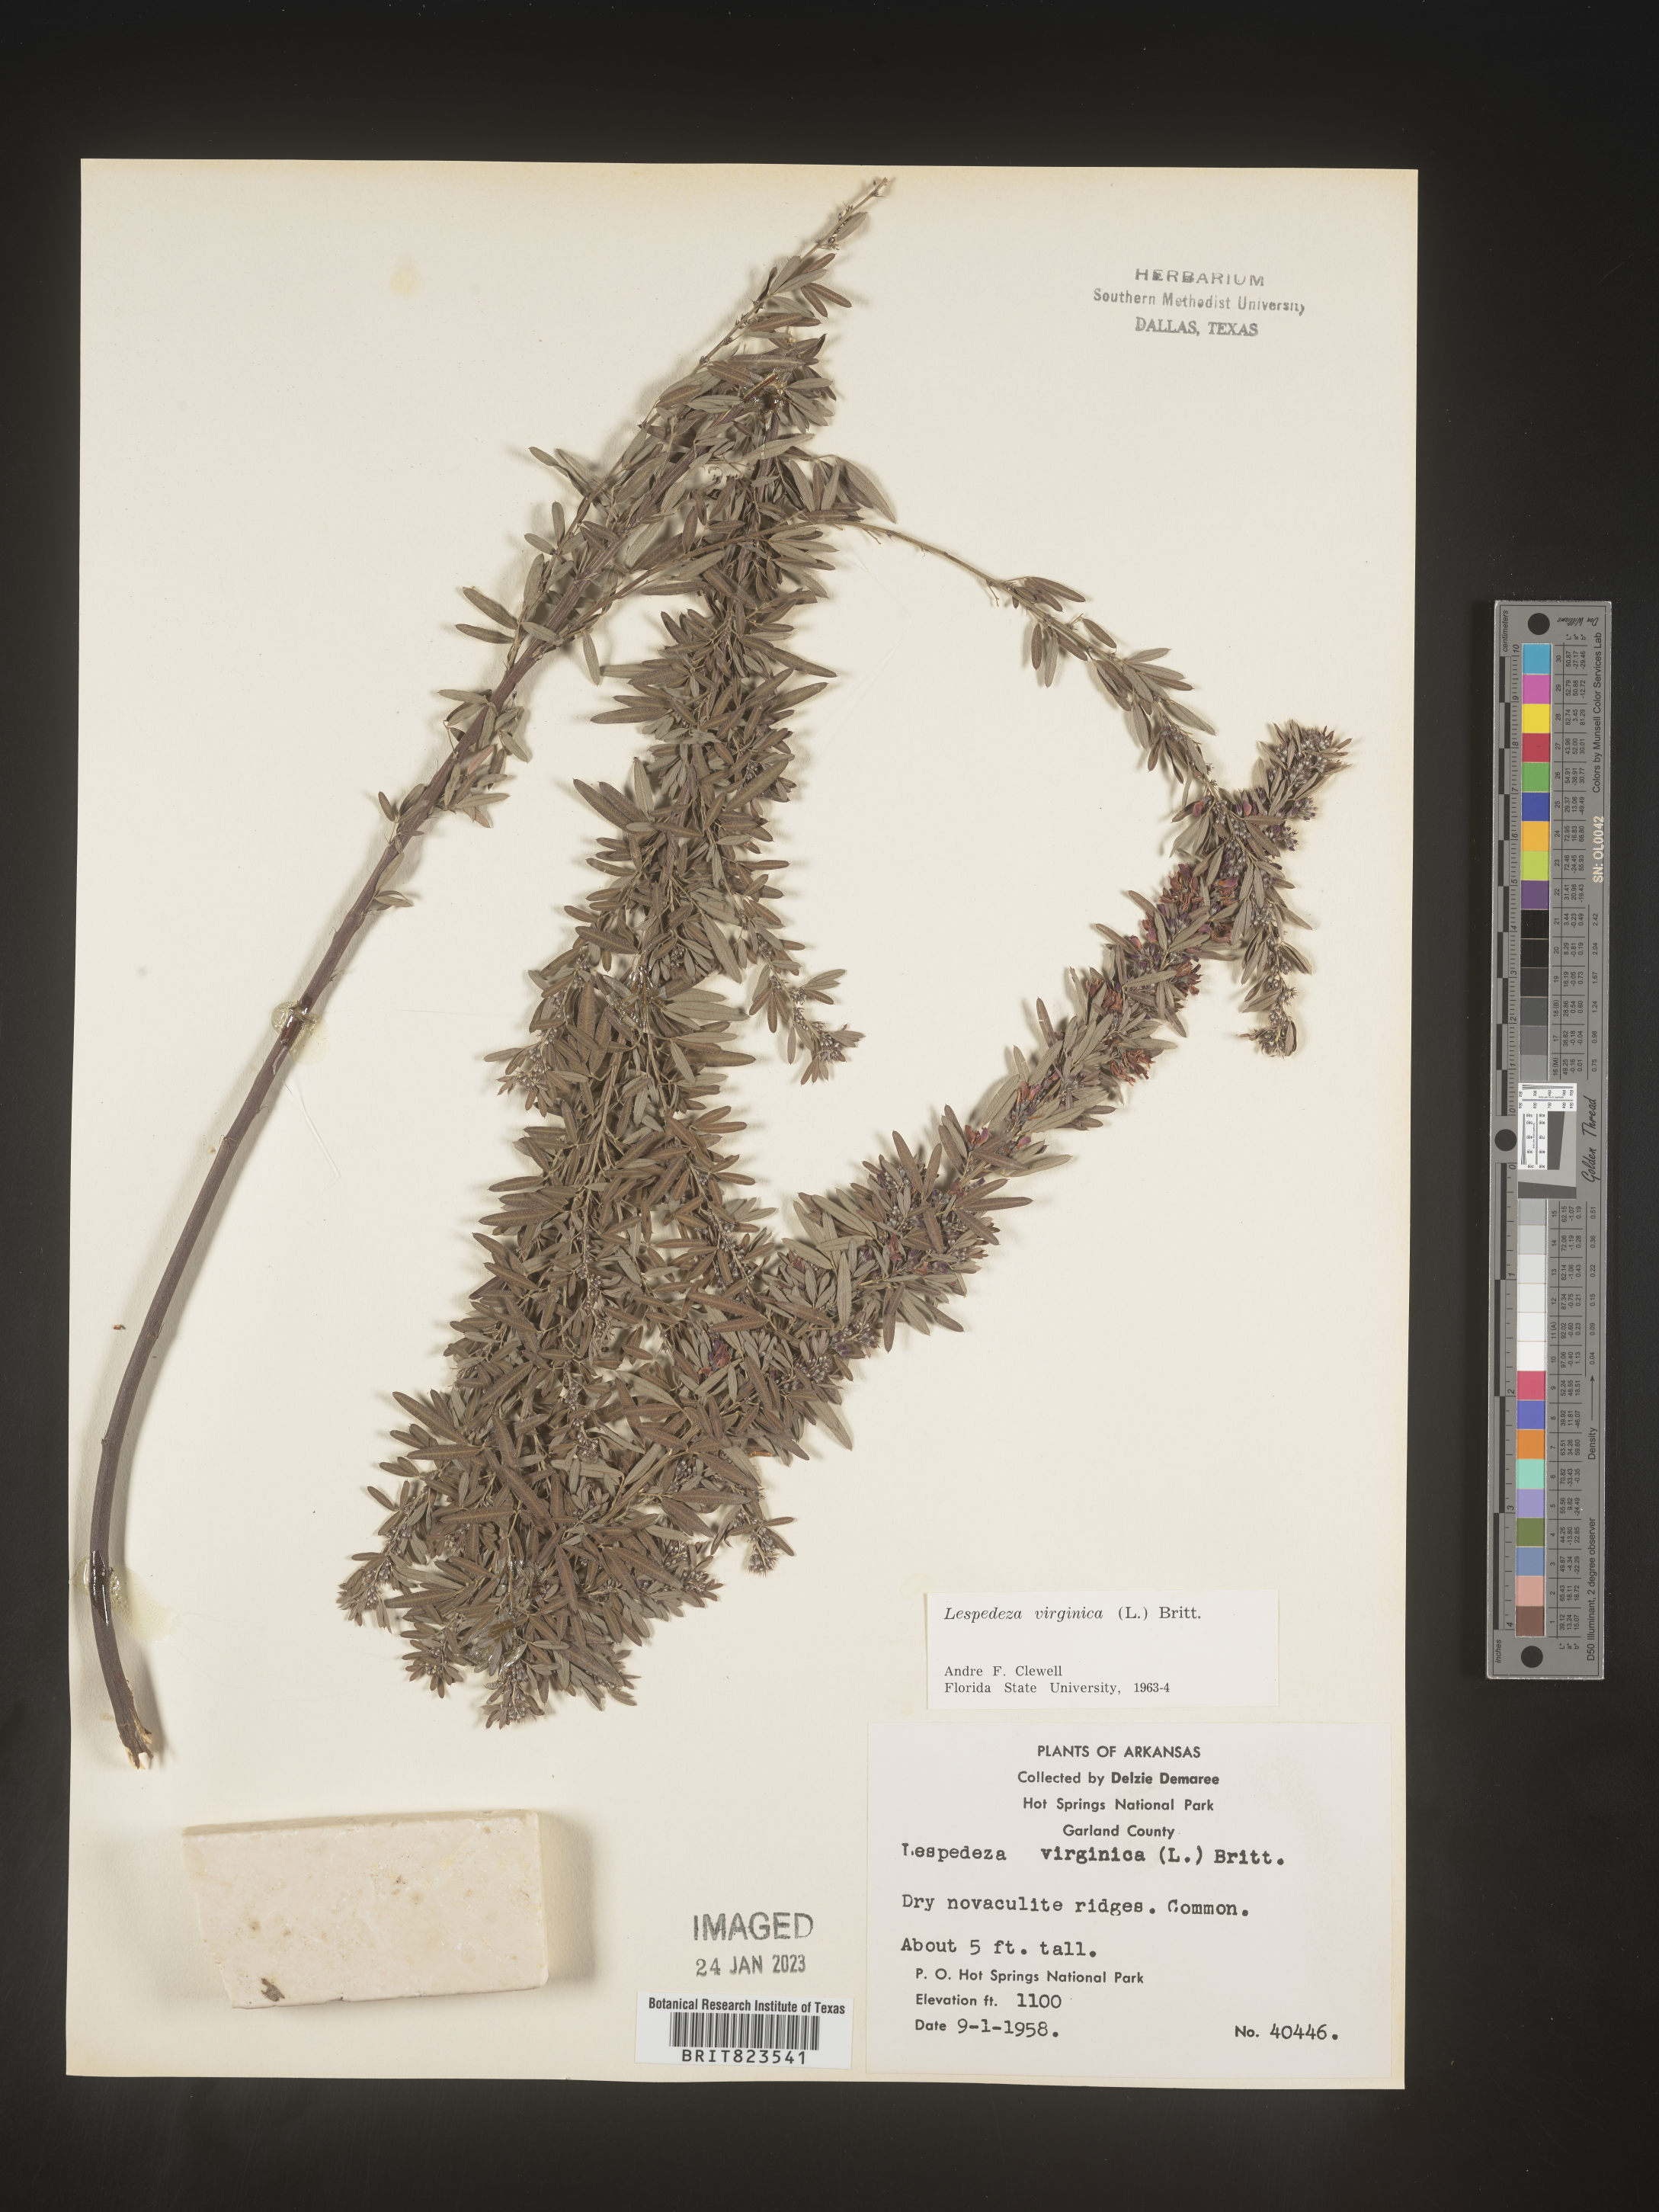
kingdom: Plantae
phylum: Tracheophyta
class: Magnoliopsida
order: Fabales
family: Fabaceae
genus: Lespedeza
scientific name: Lespedeza virginica
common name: Slender bush-clover
